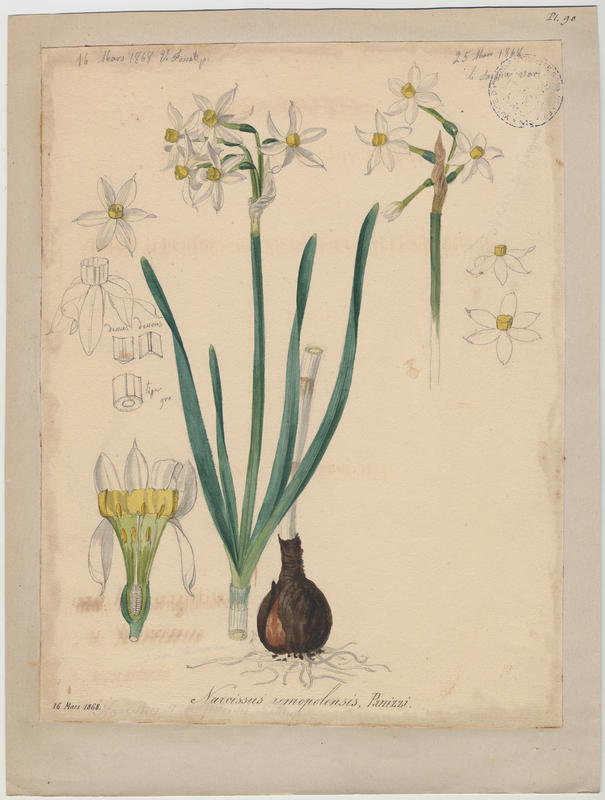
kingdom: Plantae
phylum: Tracheophyta
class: Liliopsida
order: Asparagales
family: Amaryllidaceae
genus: Narcissus
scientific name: Narcissus tazetta
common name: Bunch-flowered daffodil
